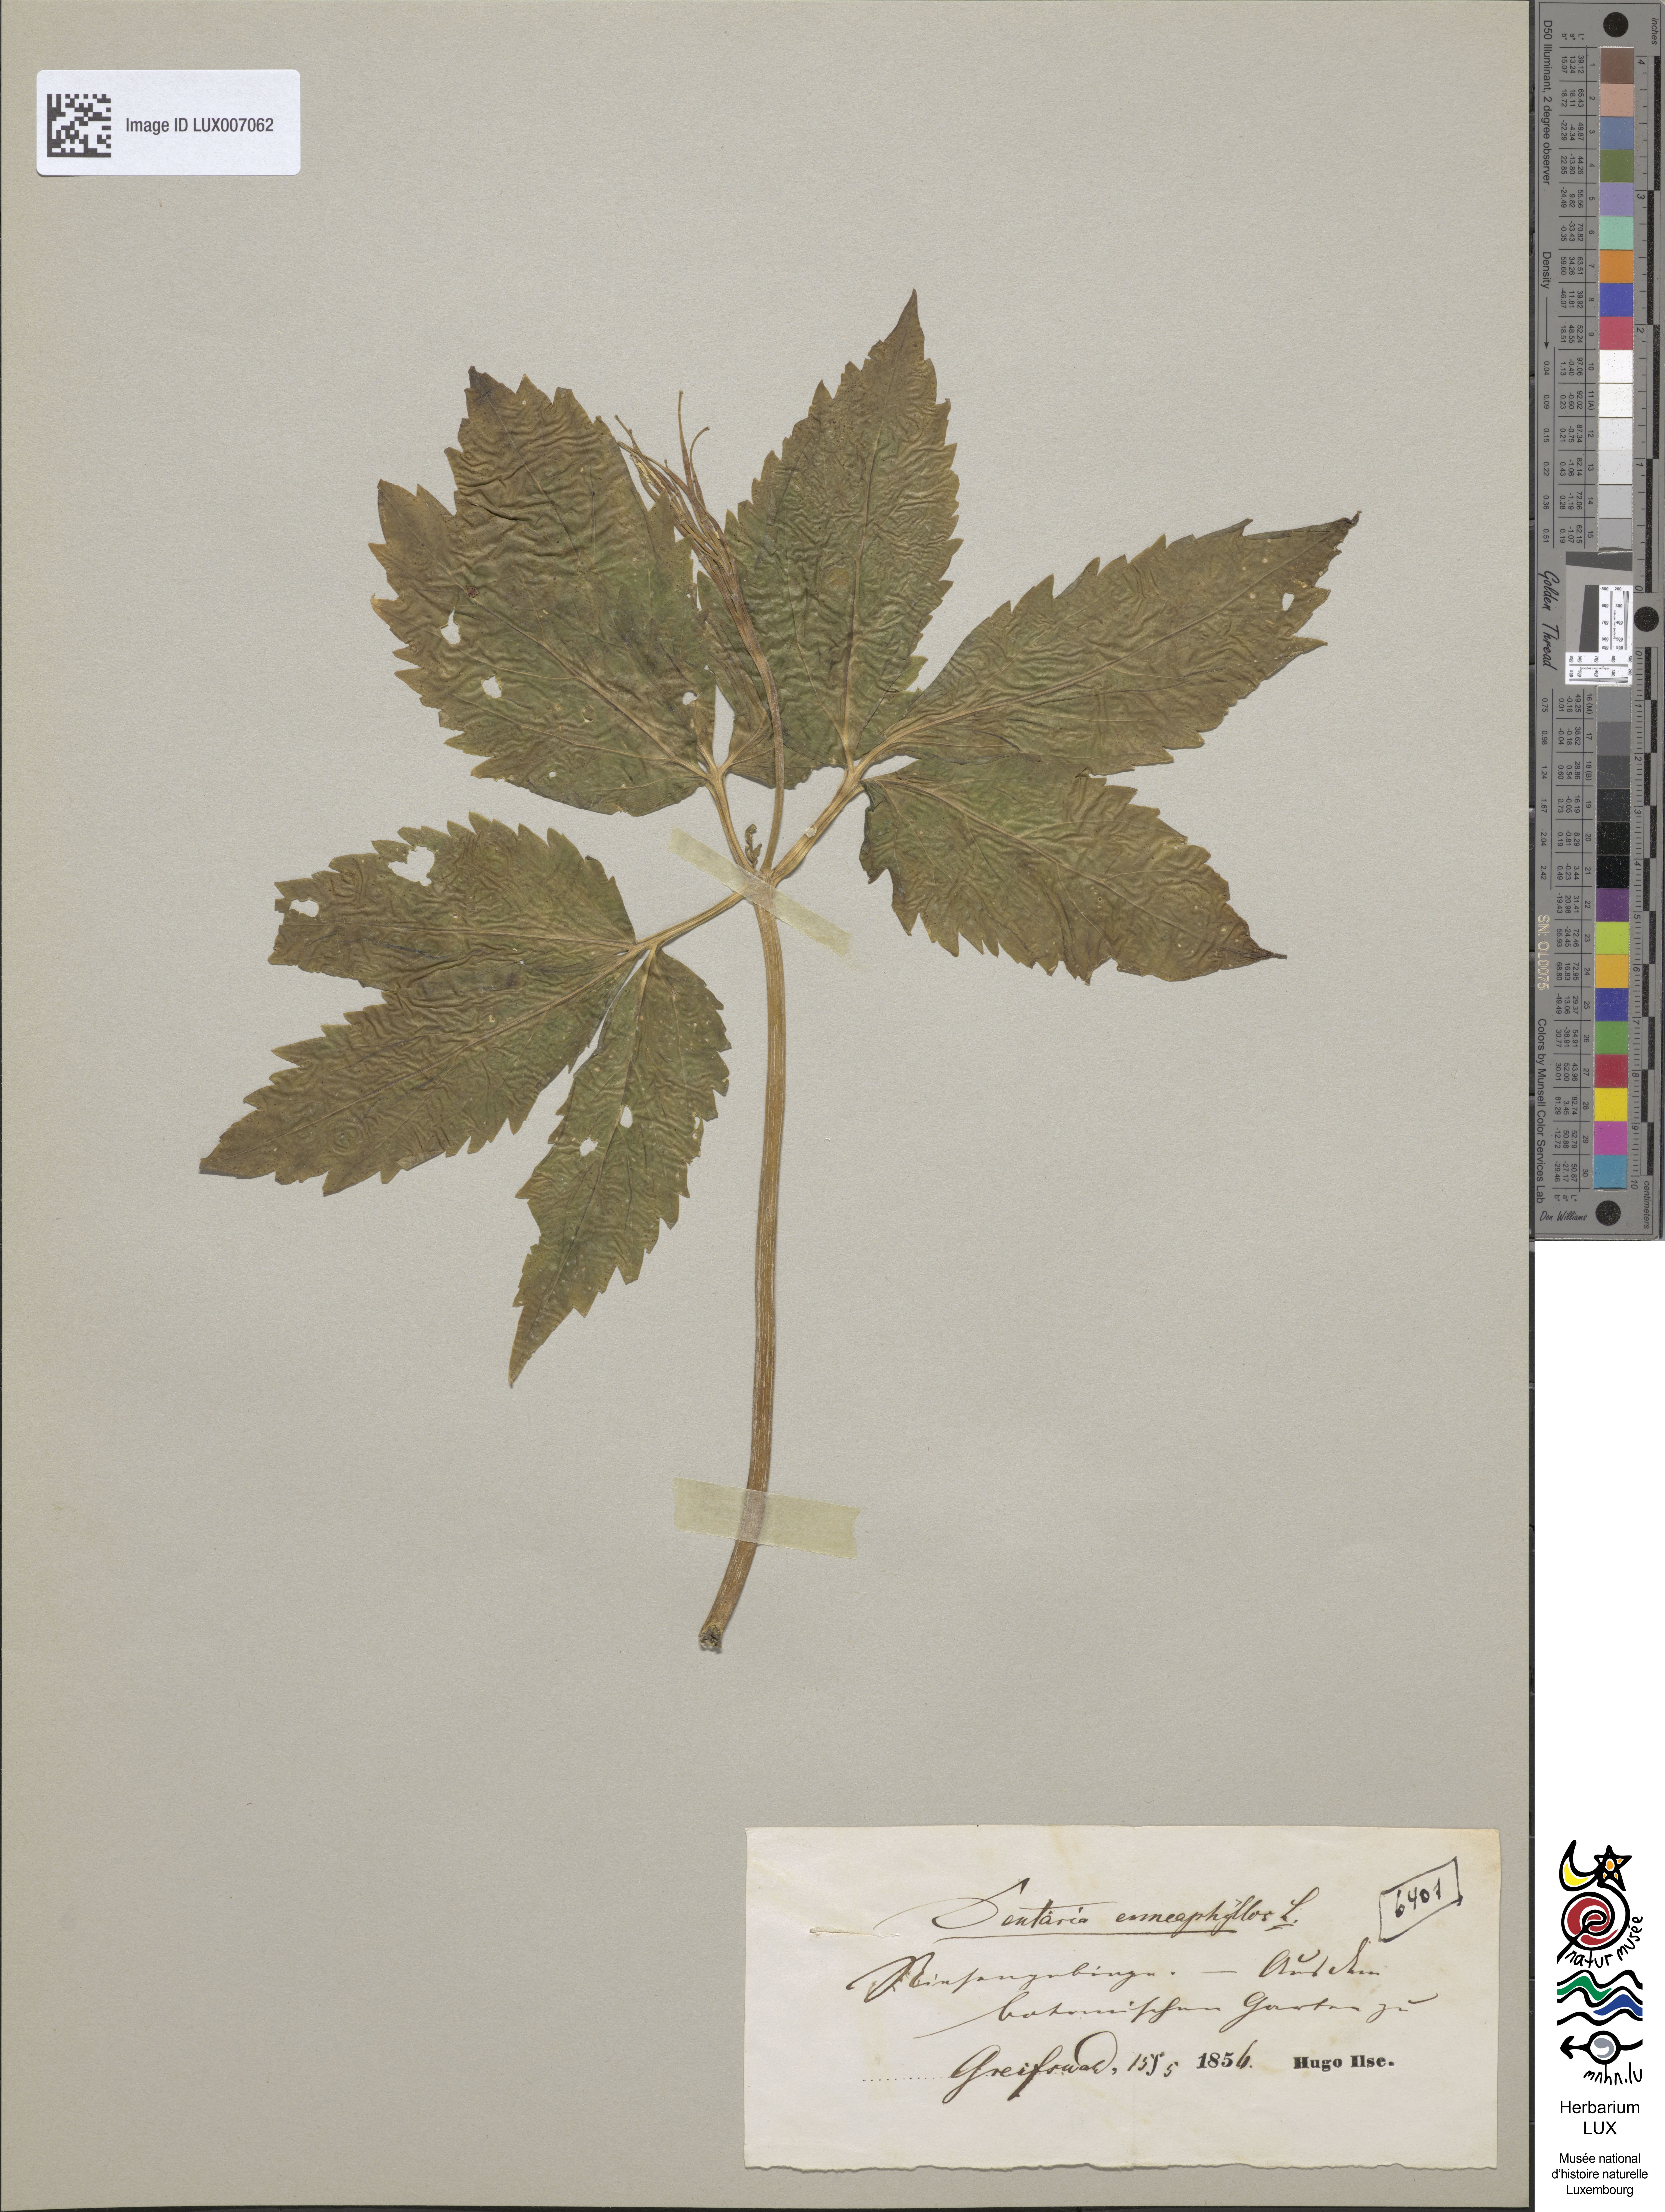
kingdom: Plantae
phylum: Tracheophyta
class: Magnoliopsida
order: Brassicales
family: Brassicaceae
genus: Cardamine
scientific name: Cardamine enneaphyllos
